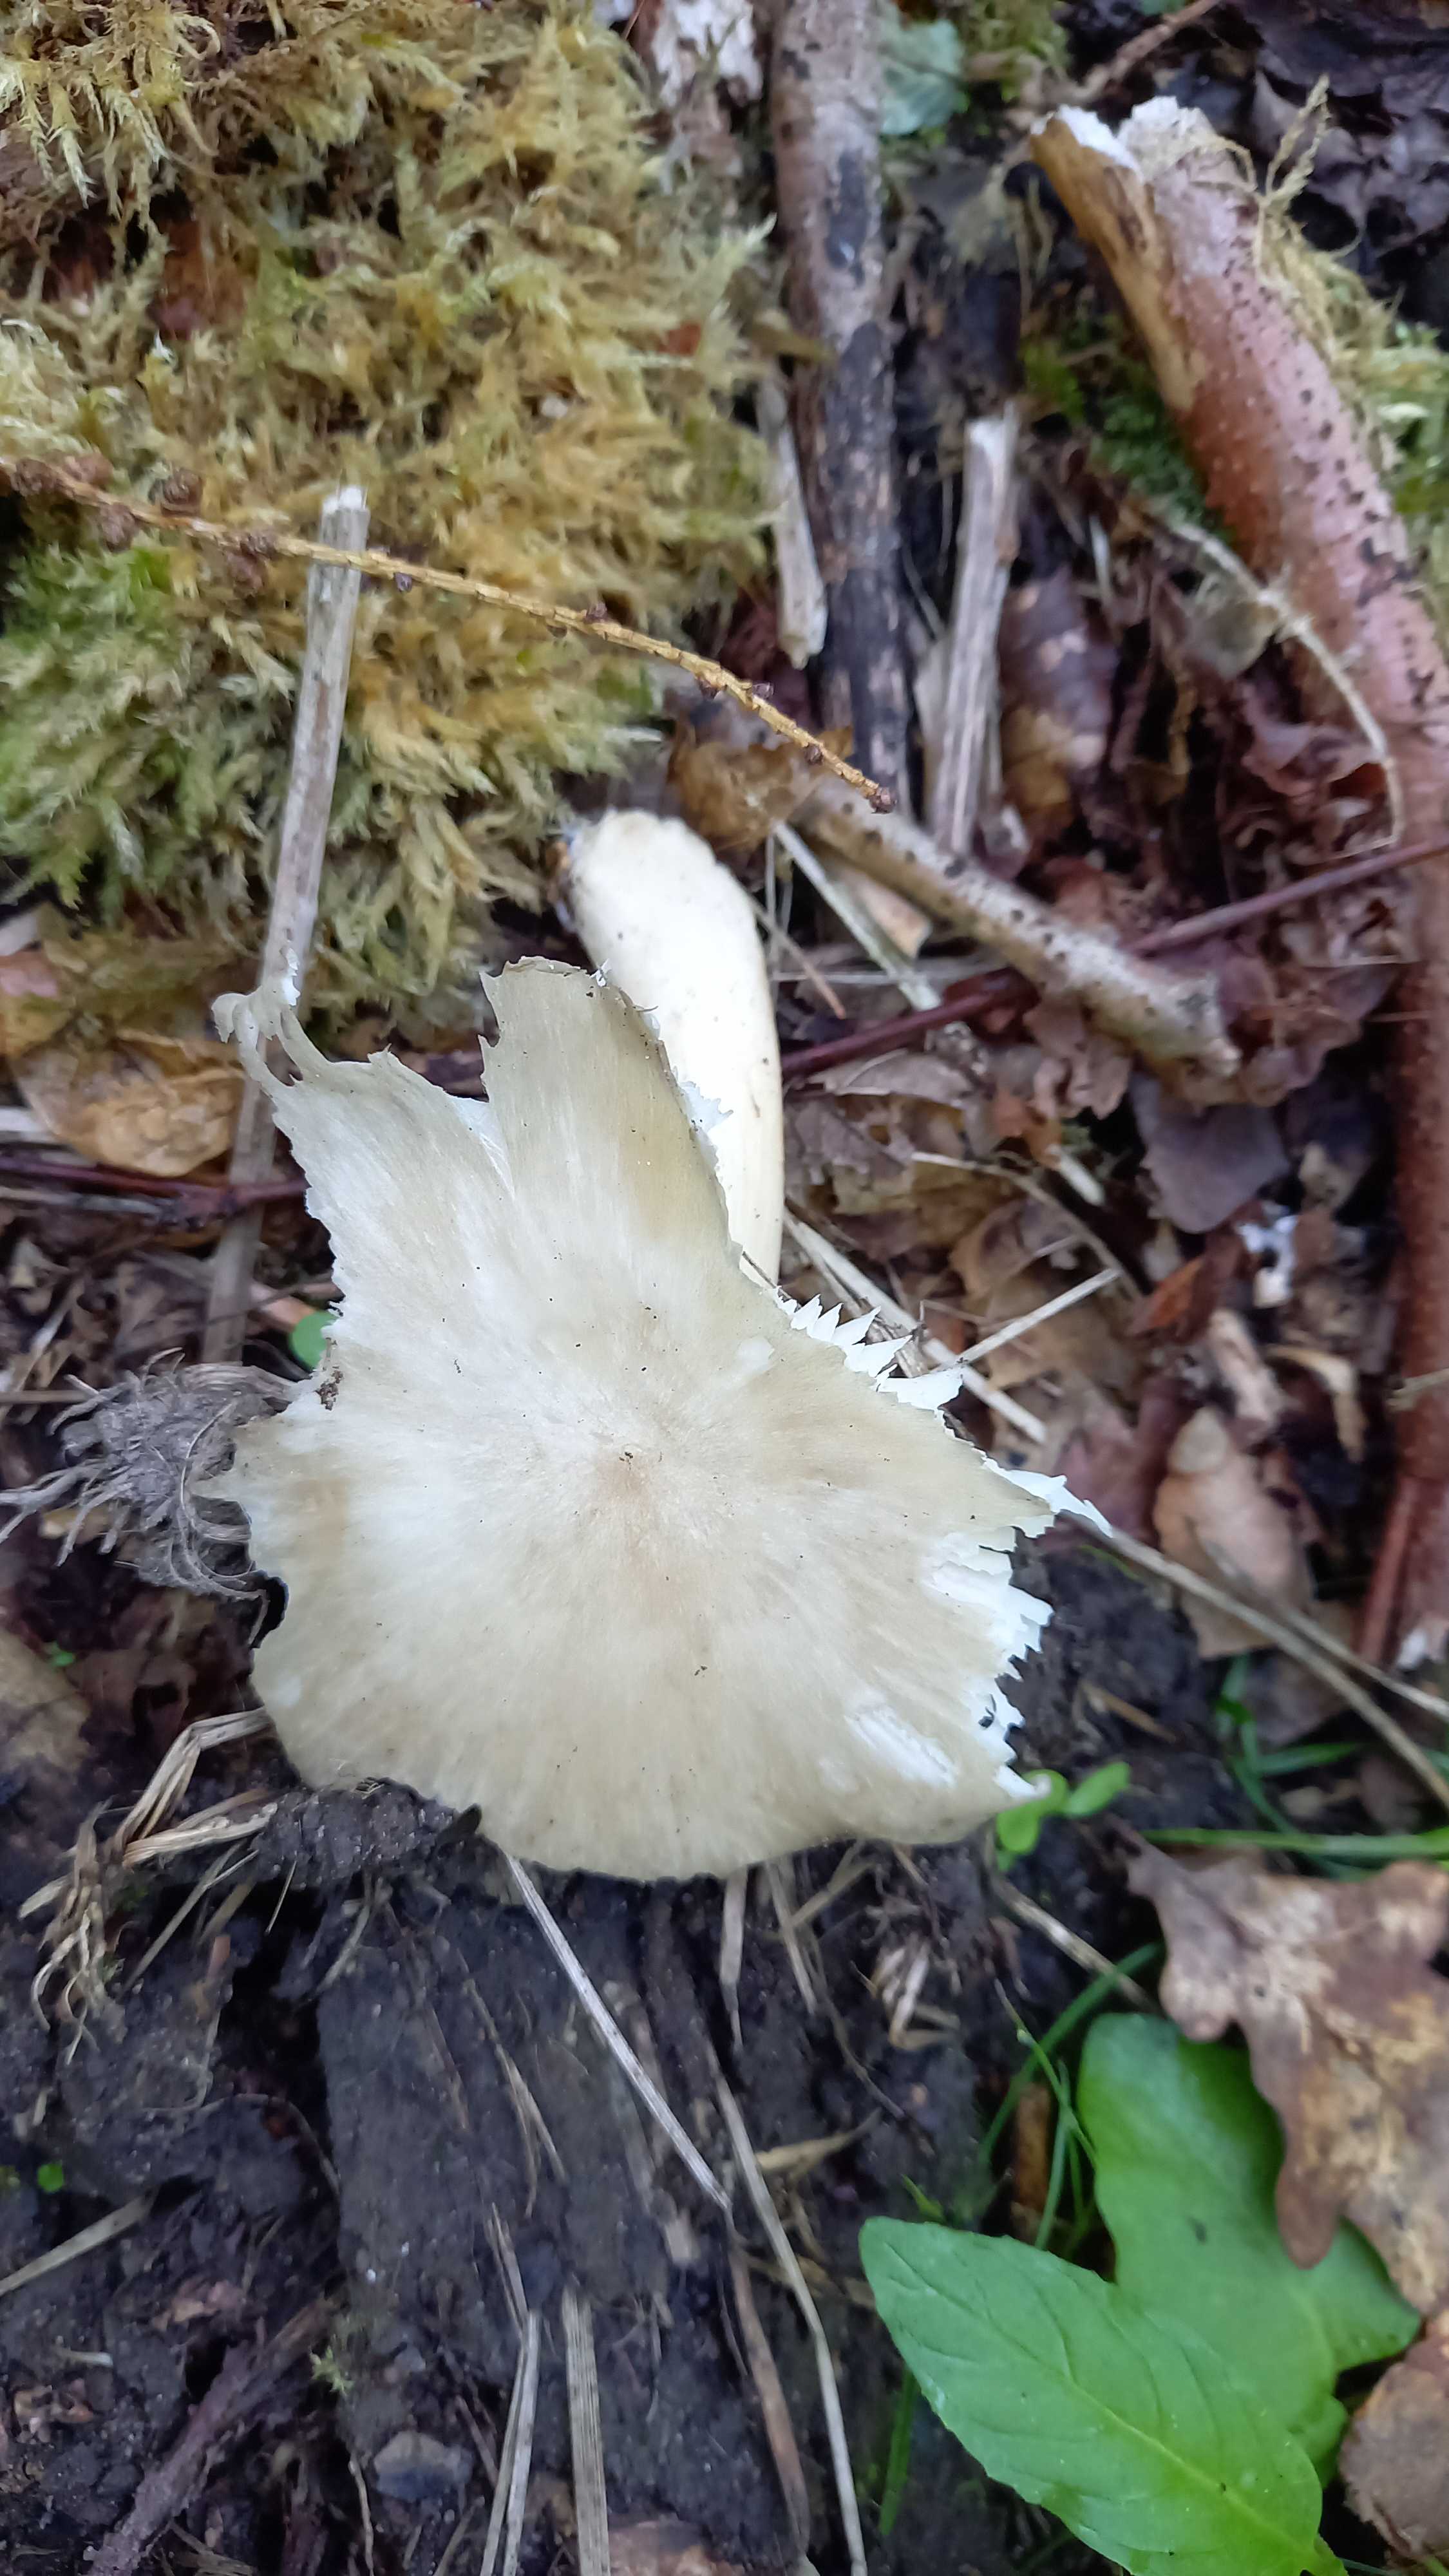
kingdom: Fungi
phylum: Basidiomycota
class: Agaricomycetes
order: Agaricales
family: Tricholomataceae
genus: Megacollybia
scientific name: Megacollybia platyphylla
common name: bredbladet væbnerhat
